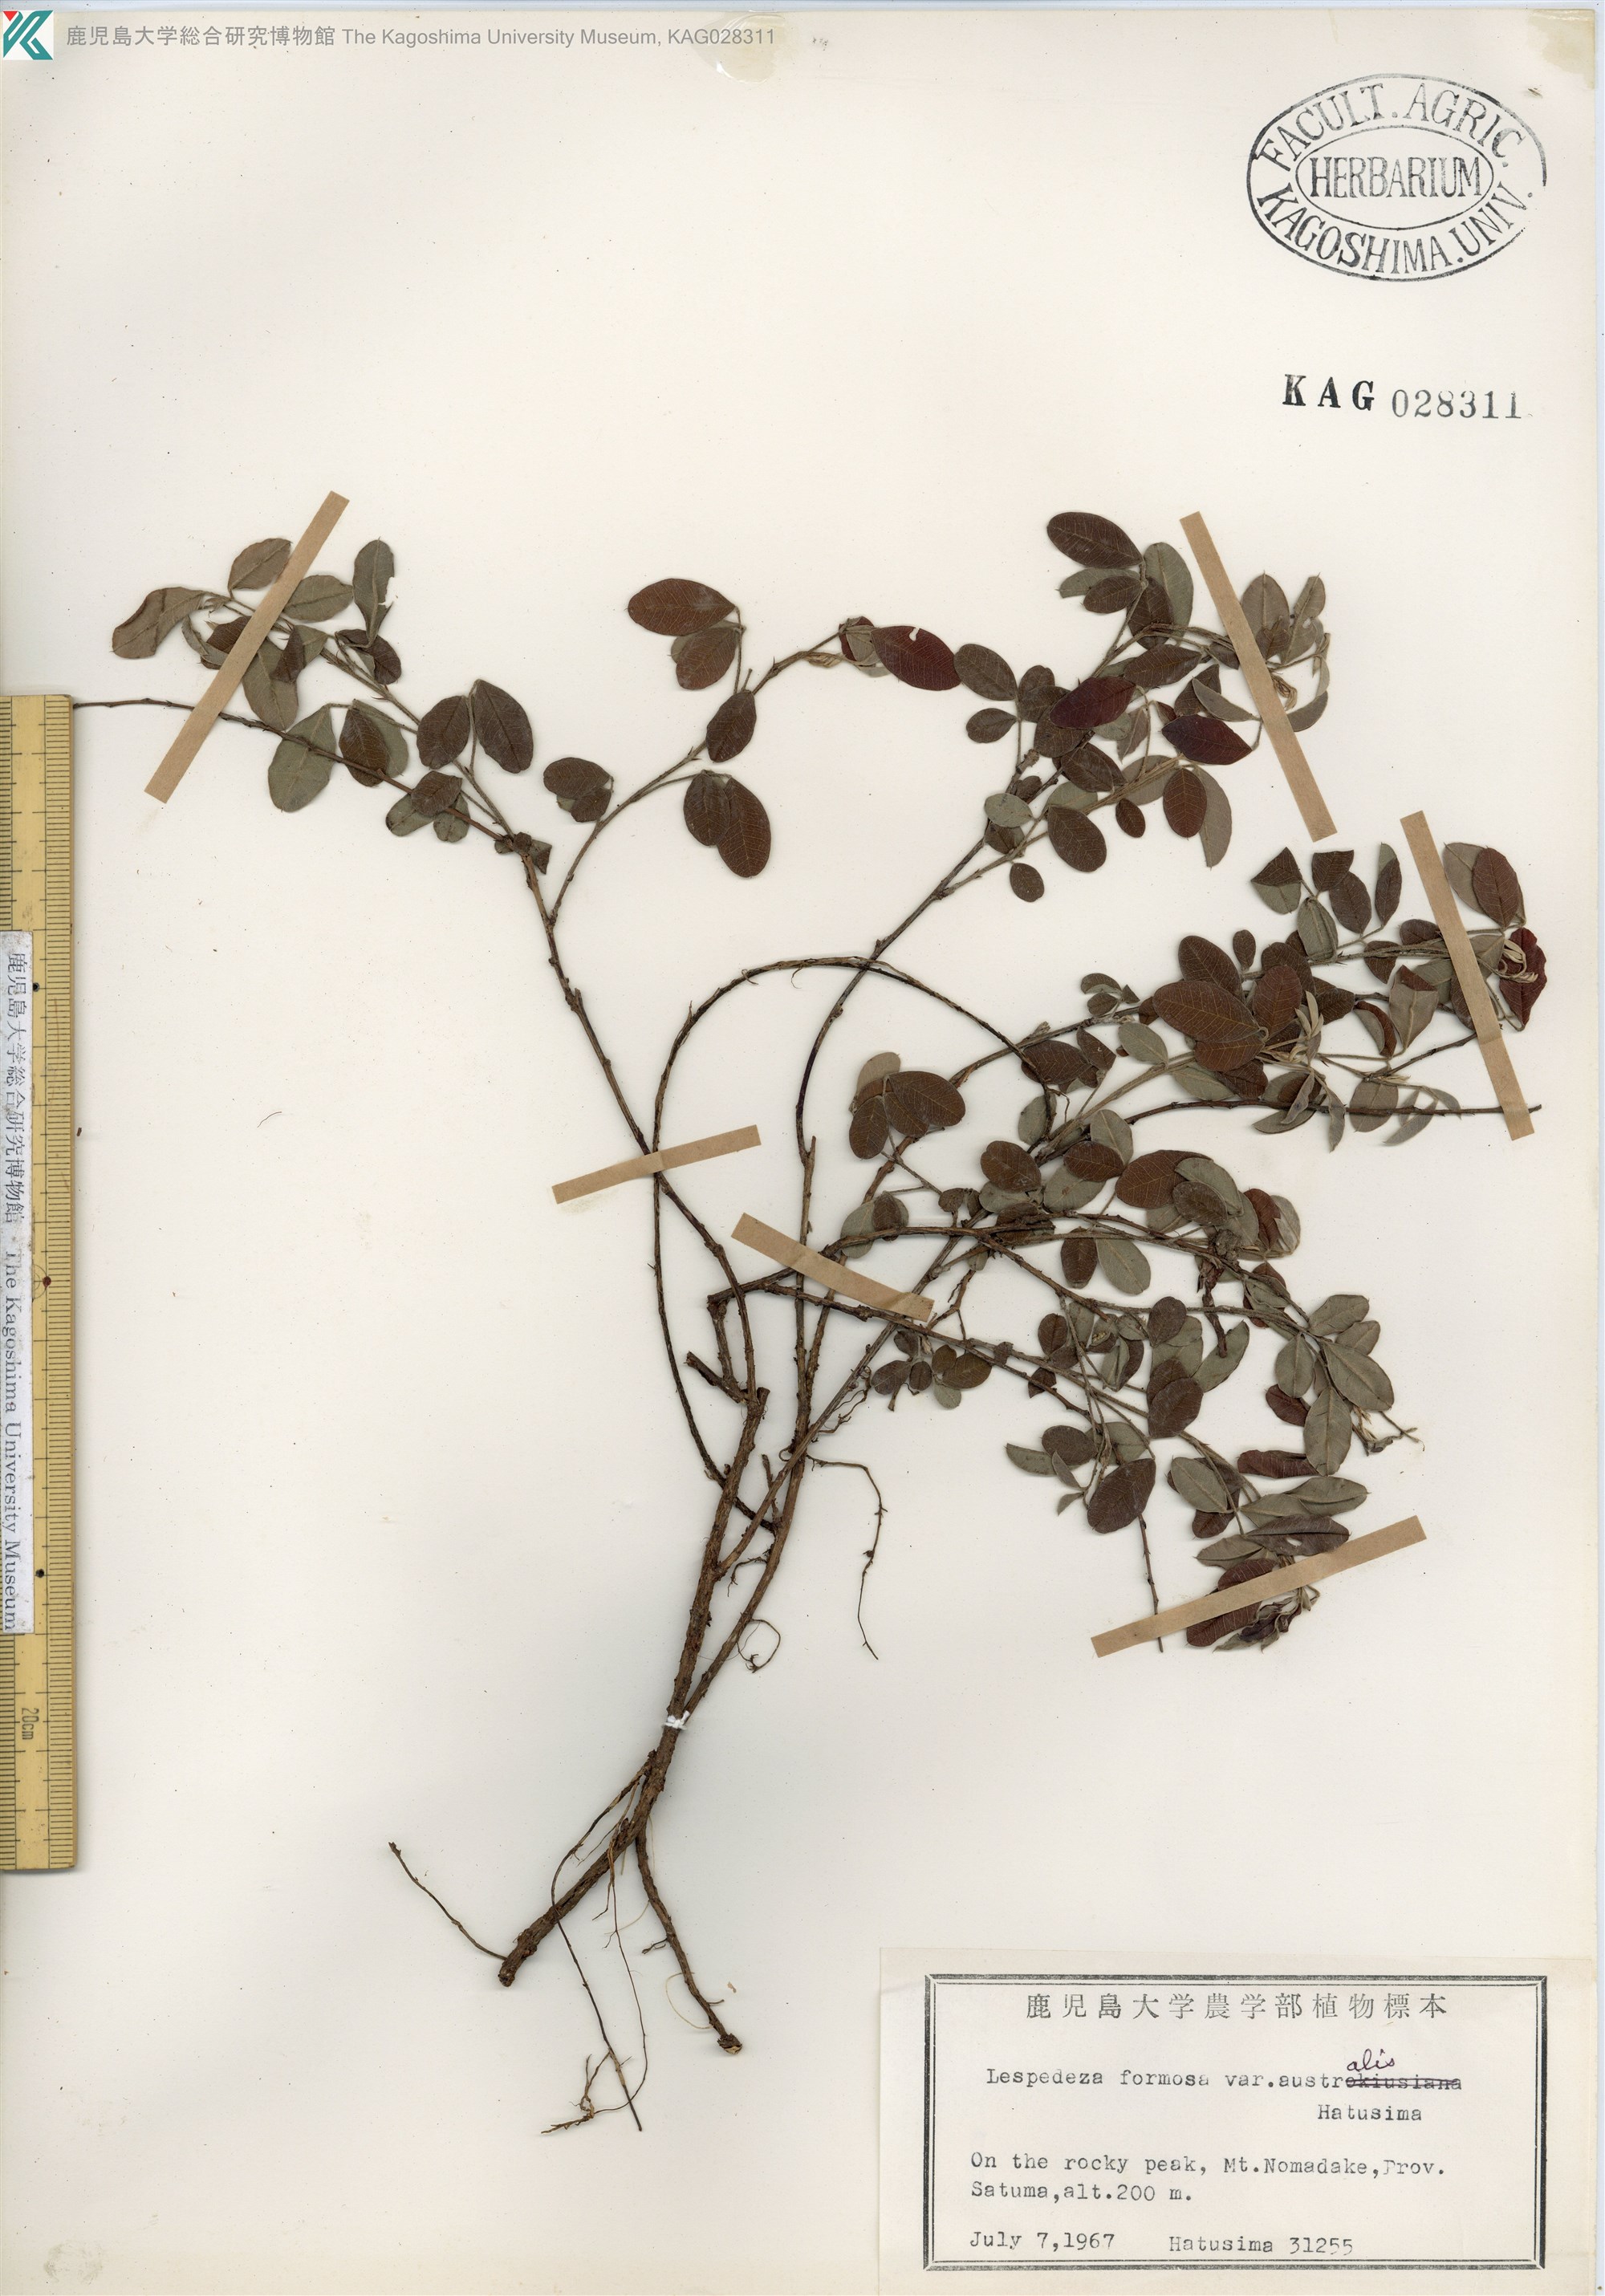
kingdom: Plantae
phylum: Tracheophyta
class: Magnoliopsida
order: Fabales
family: Fabaceae
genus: Lespedeza
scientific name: Lespedeza thunbergii
